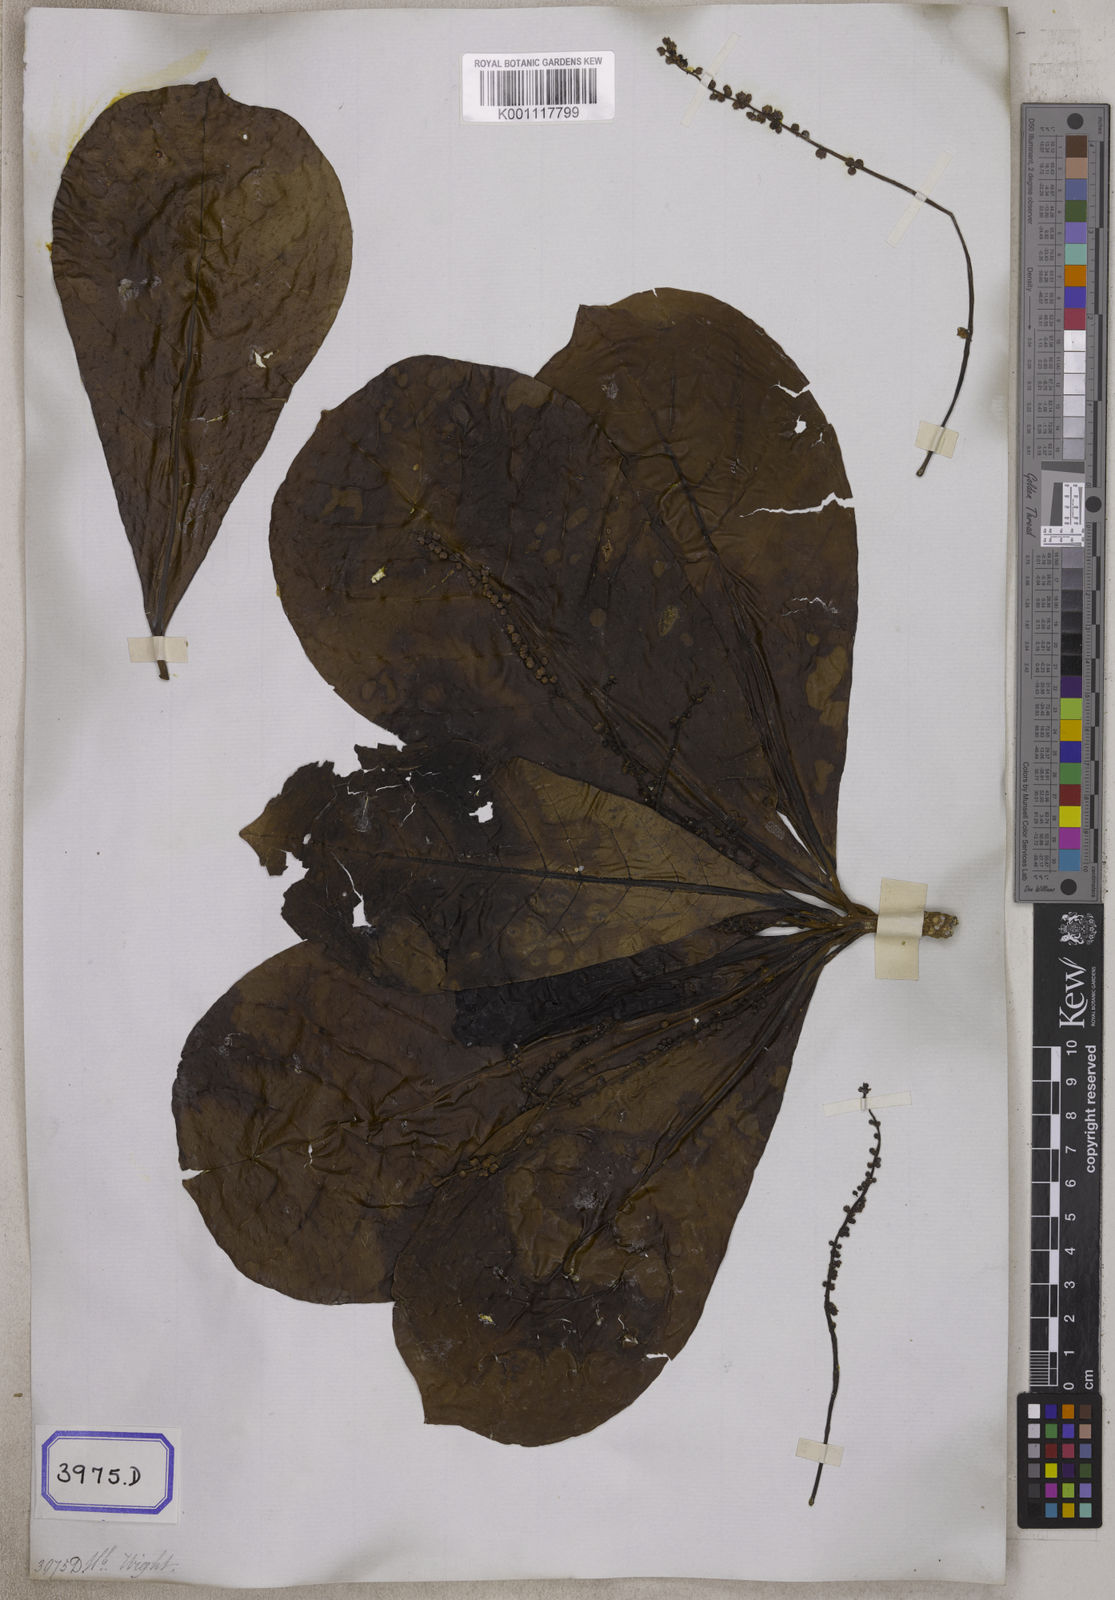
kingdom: Plantae
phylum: Tracheophyta
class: Magnoliopsida
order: Myrtales
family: Combretaceae
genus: Terminalia
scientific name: Terminalia catappa
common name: Tropical almond
